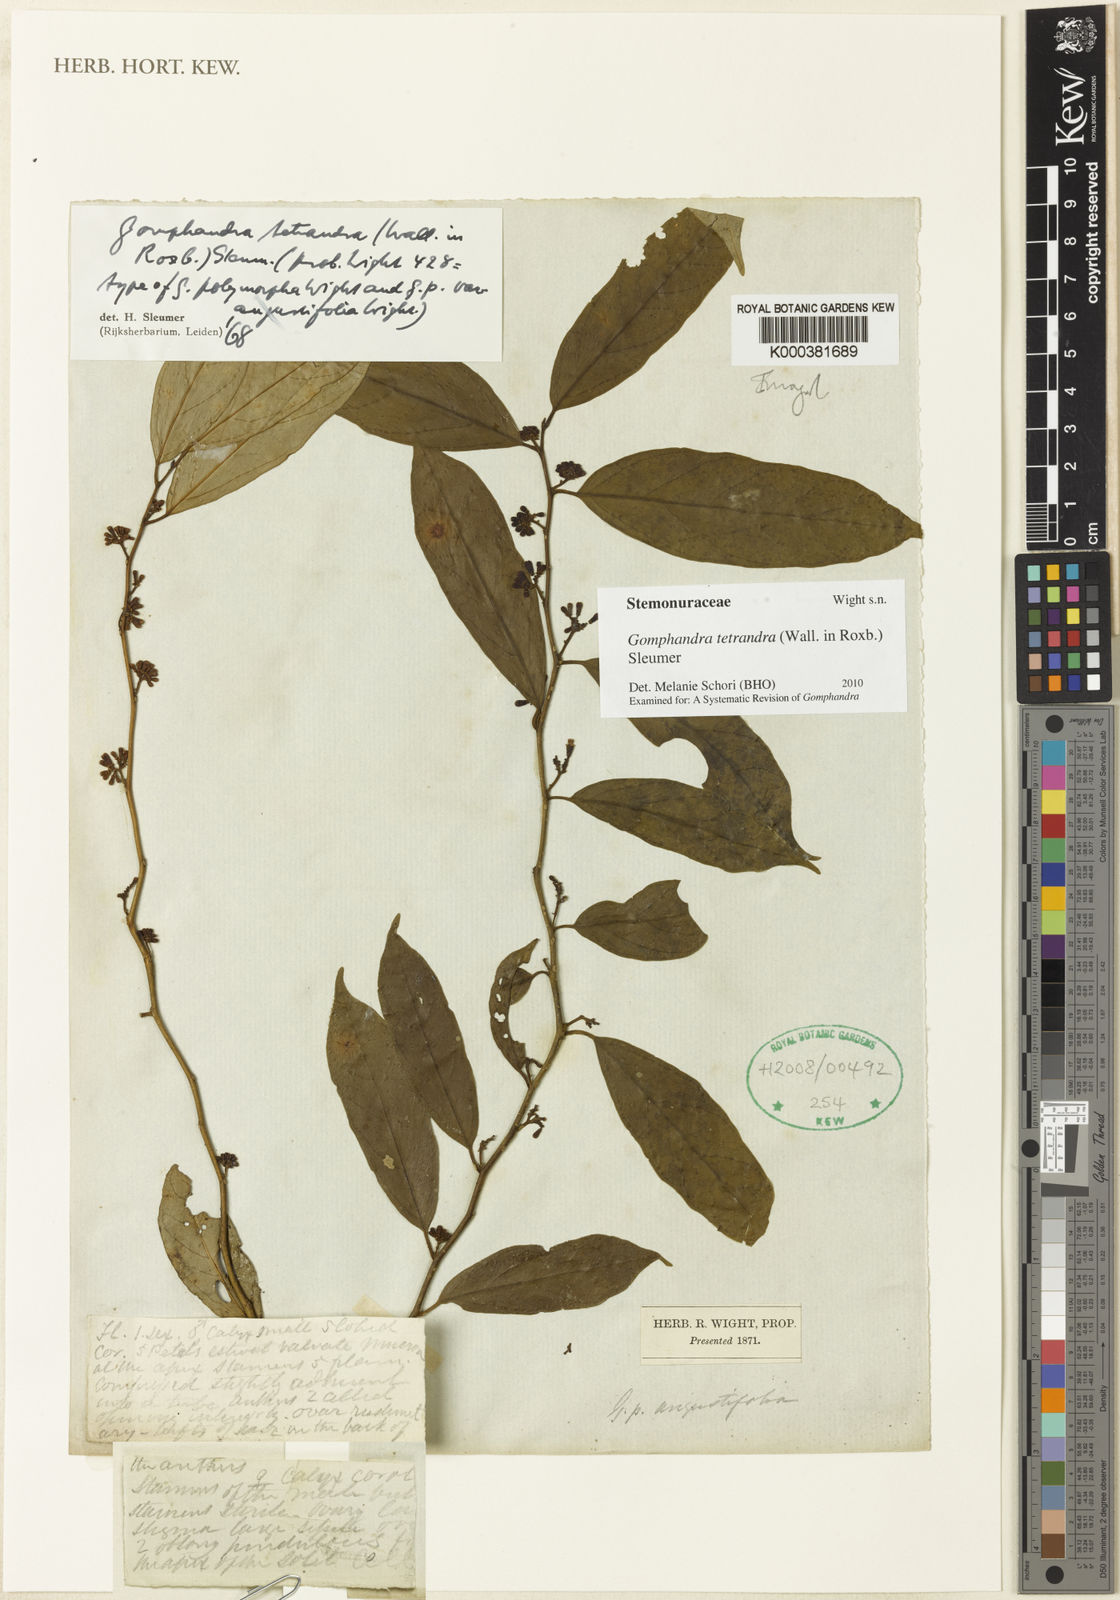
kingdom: Plantae
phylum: Tracheophyta
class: Magnoliopsida
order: Cardiopteridales
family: Stemonuraceae
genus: Gomphandra
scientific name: Gomphandra tetrandra
